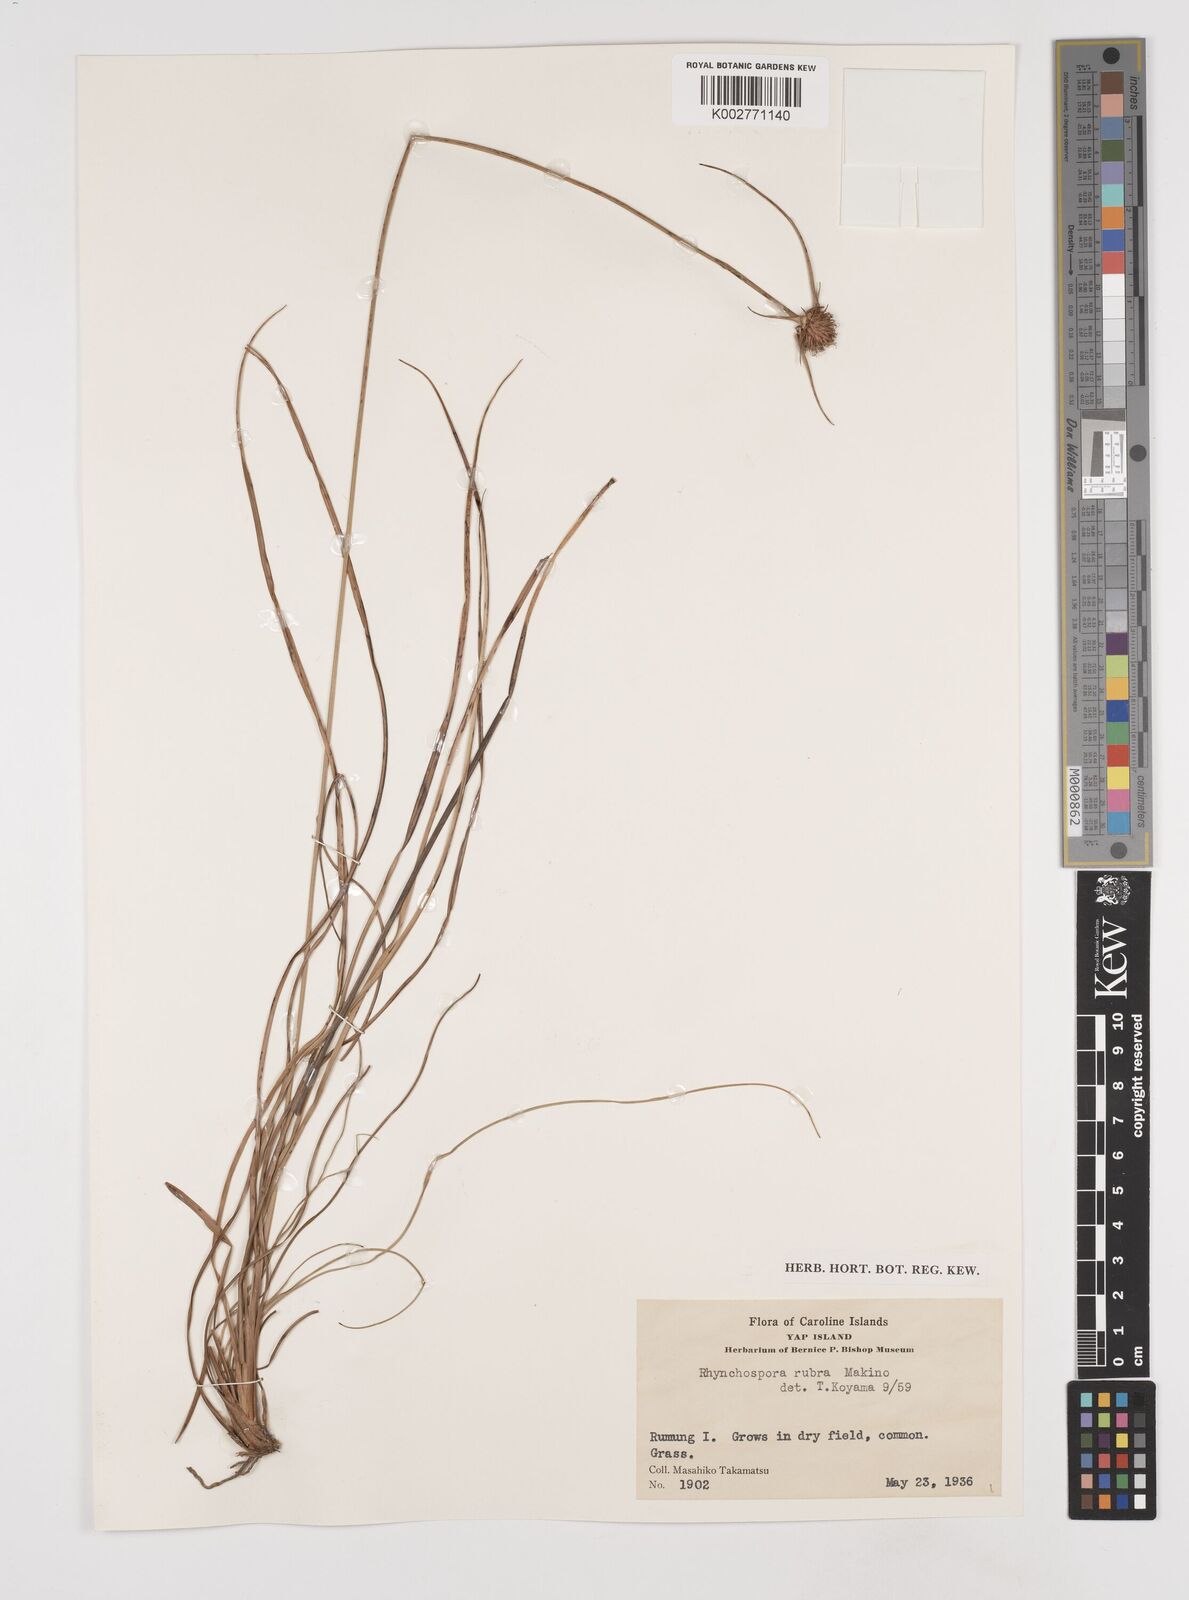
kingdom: Plantae
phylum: Tracheophyta
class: Liliopsida
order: Poales
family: Cyperaceae
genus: Rhynchospora
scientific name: Rhynchospora rubra
